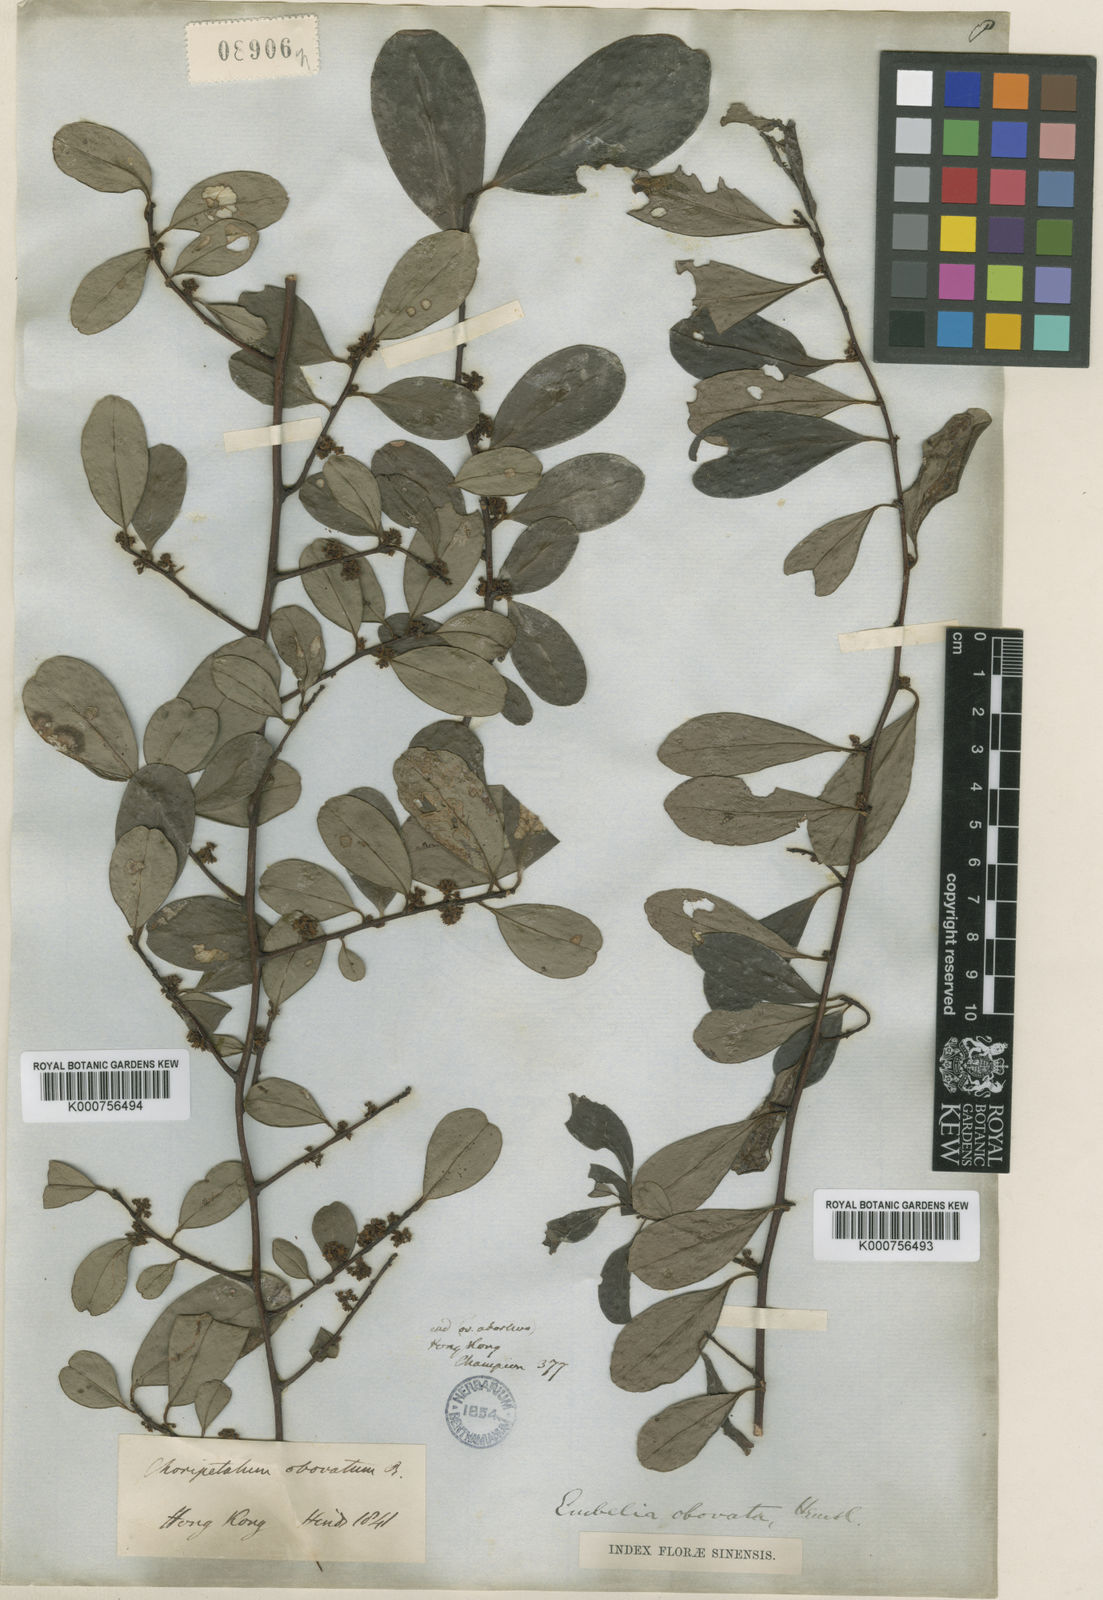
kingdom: Plantae
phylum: Tracheophyta
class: Magnoliopsida
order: Ericales
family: Primulaceae
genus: Embelia
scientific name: Embelia
